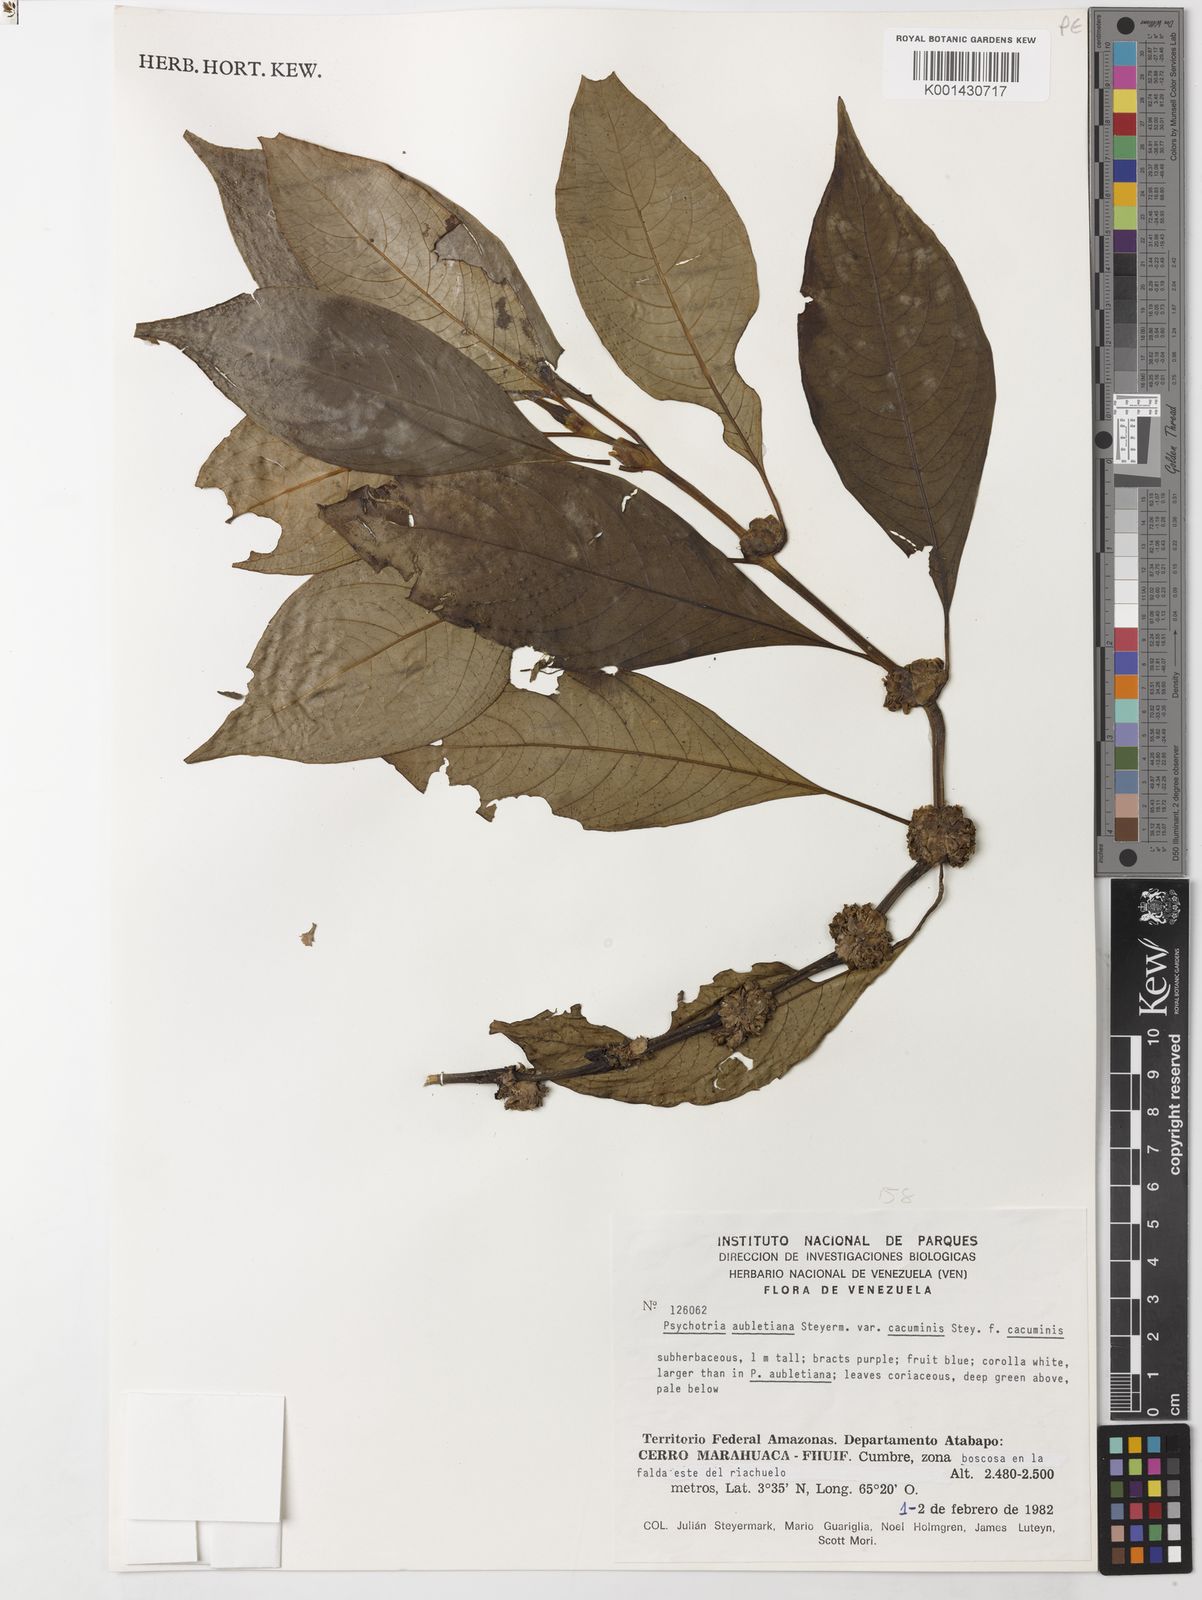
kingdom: Plantae
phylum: Tracheophyta
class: Magnoliopsida
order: Gentianales
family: Rubiaceae
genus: Palicourea
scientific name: Palicourea axillaris
